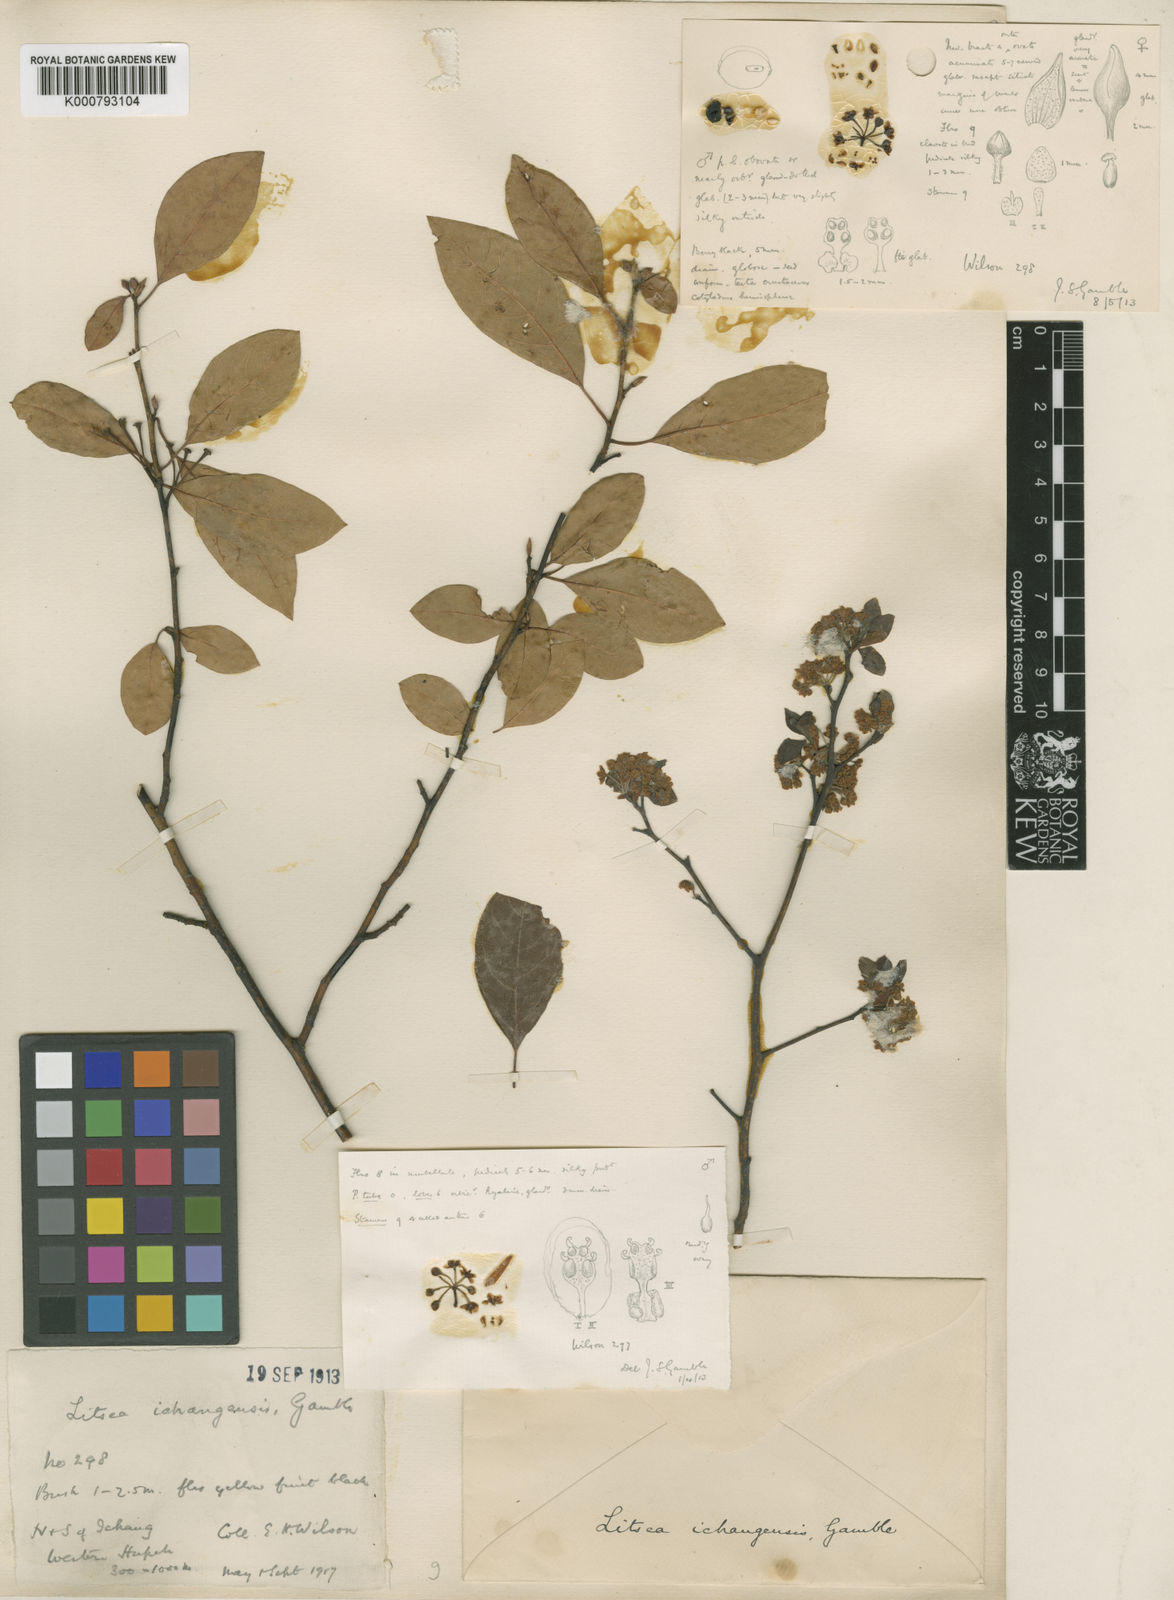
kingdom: Plantae
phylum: Tracheophyta
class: Magnoliopsida
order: Laurales
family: Lauraceae
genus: Litsea
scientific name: Litsea ichangensis
